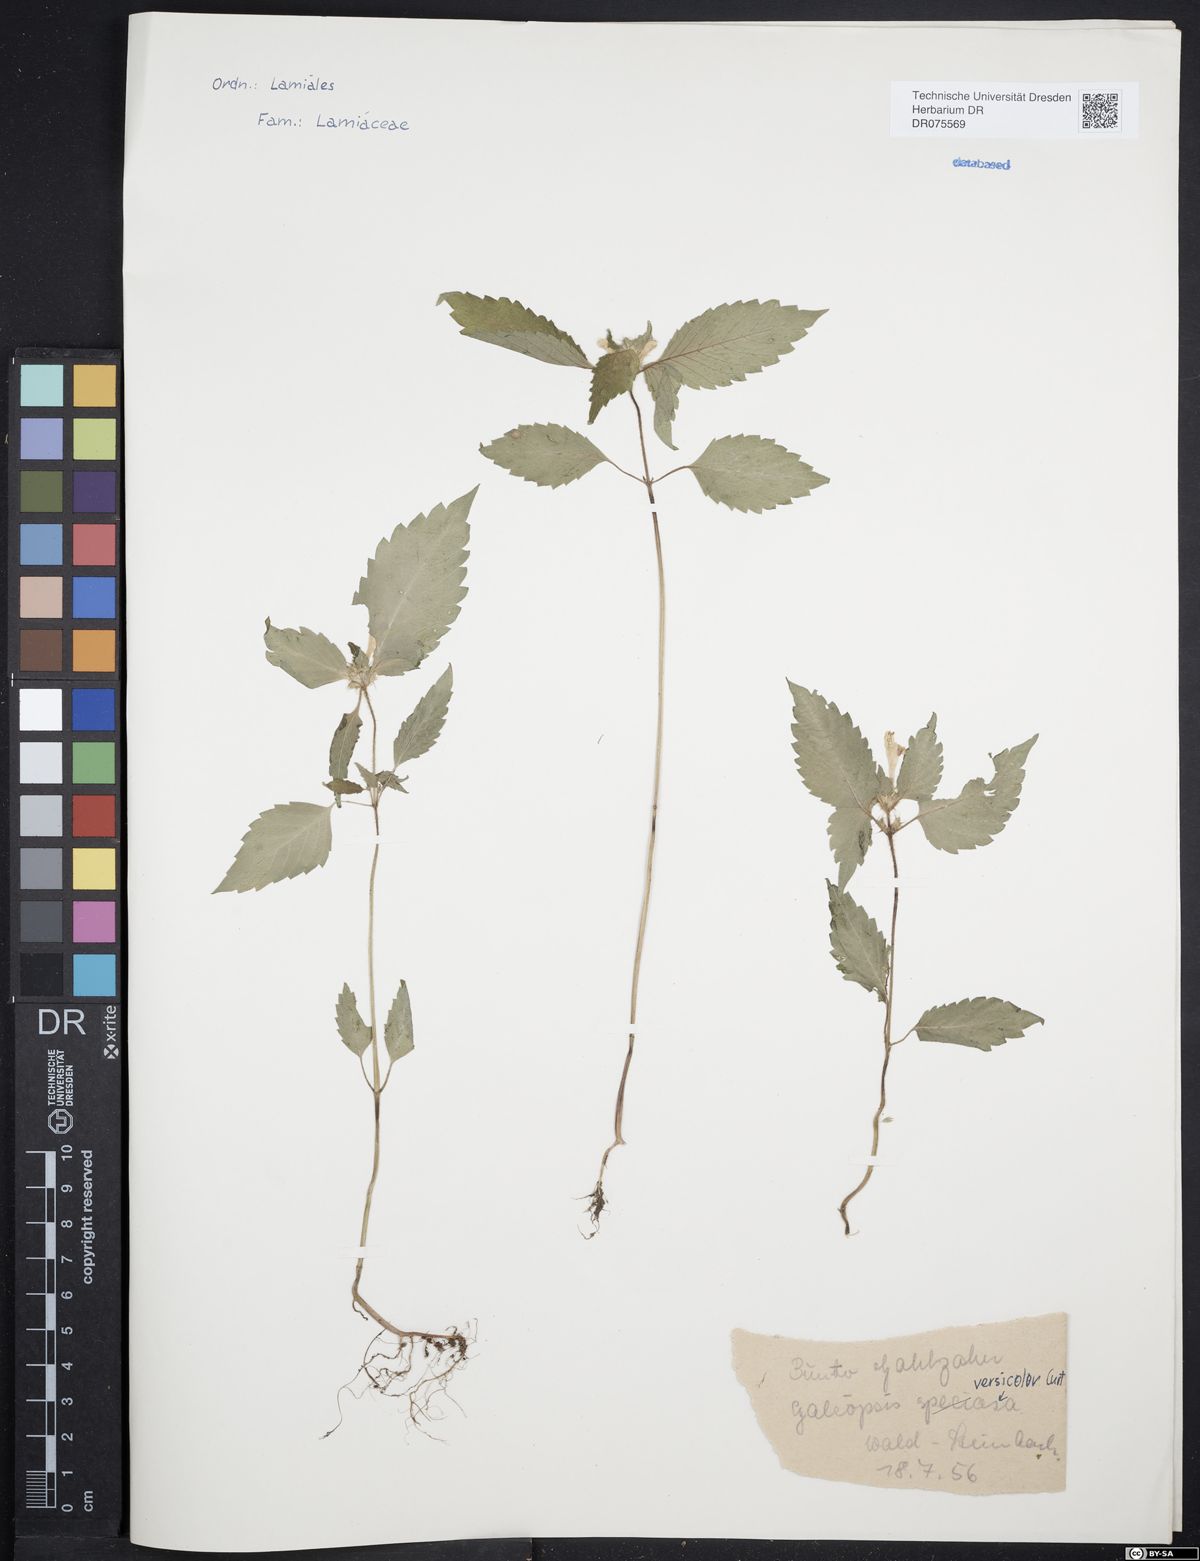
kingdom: Plantae
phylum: Tracheophyta
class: Magnoliopsida
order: Lamiales
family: Lamiaceae
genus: Galeopsis
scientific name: Galeopsis speciosa
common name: Large-flowered hemp-nettle
